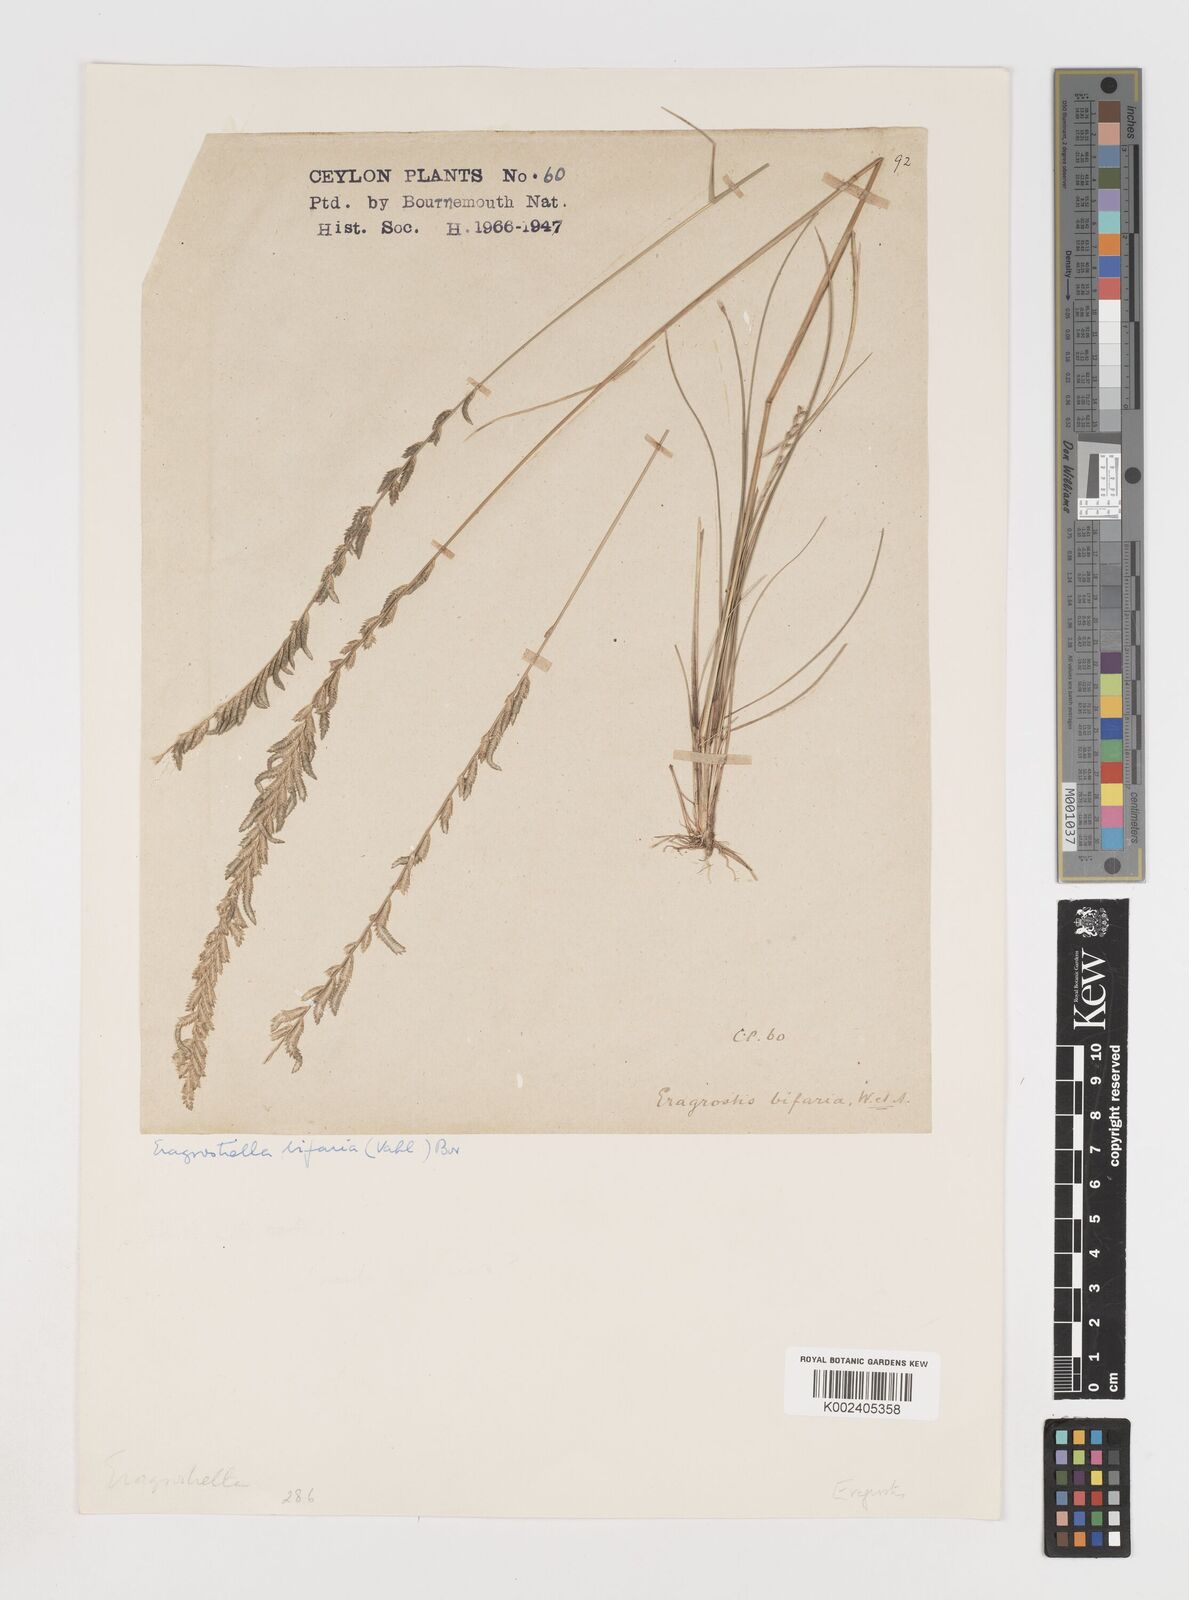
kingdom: Plantae
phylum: Tracheophyta
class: Liliopsida
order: Poales
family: Poaceae
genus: Eragrostiella
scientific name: Eragrostiella bifaria
